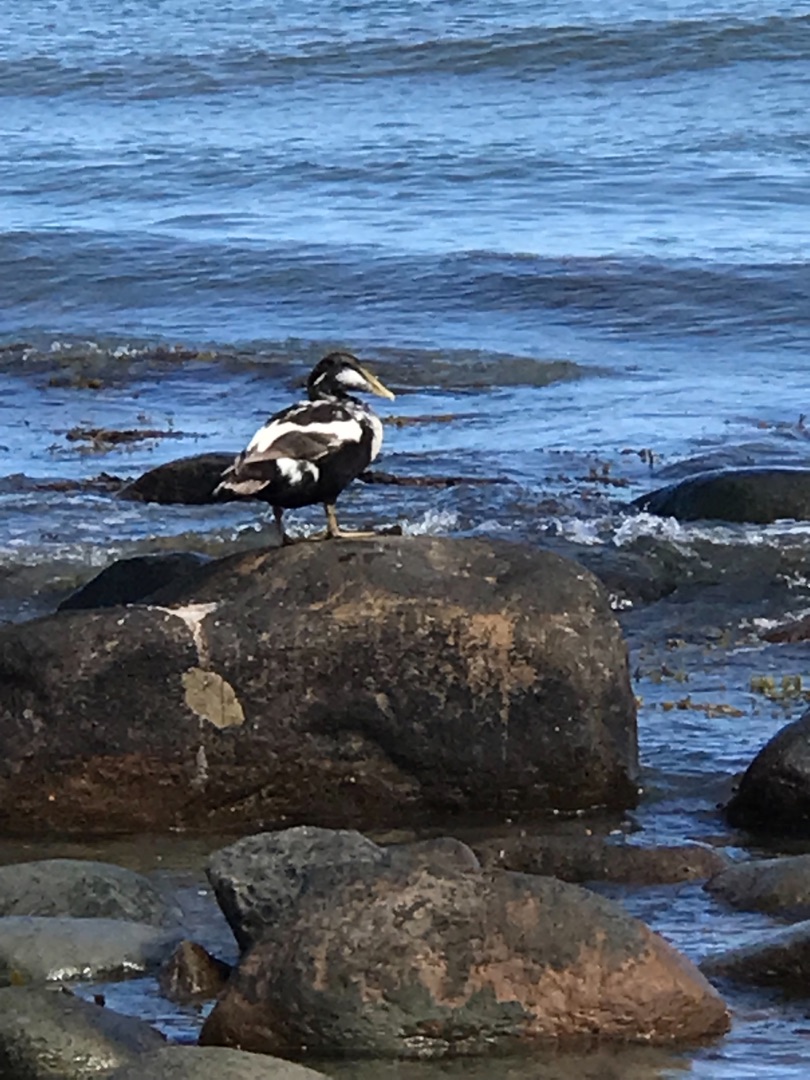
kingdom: Animalia
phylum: Chordata
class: Aves
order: Anseriformes
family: Anatidae
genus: Somateria
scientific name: Somateria mollissima
